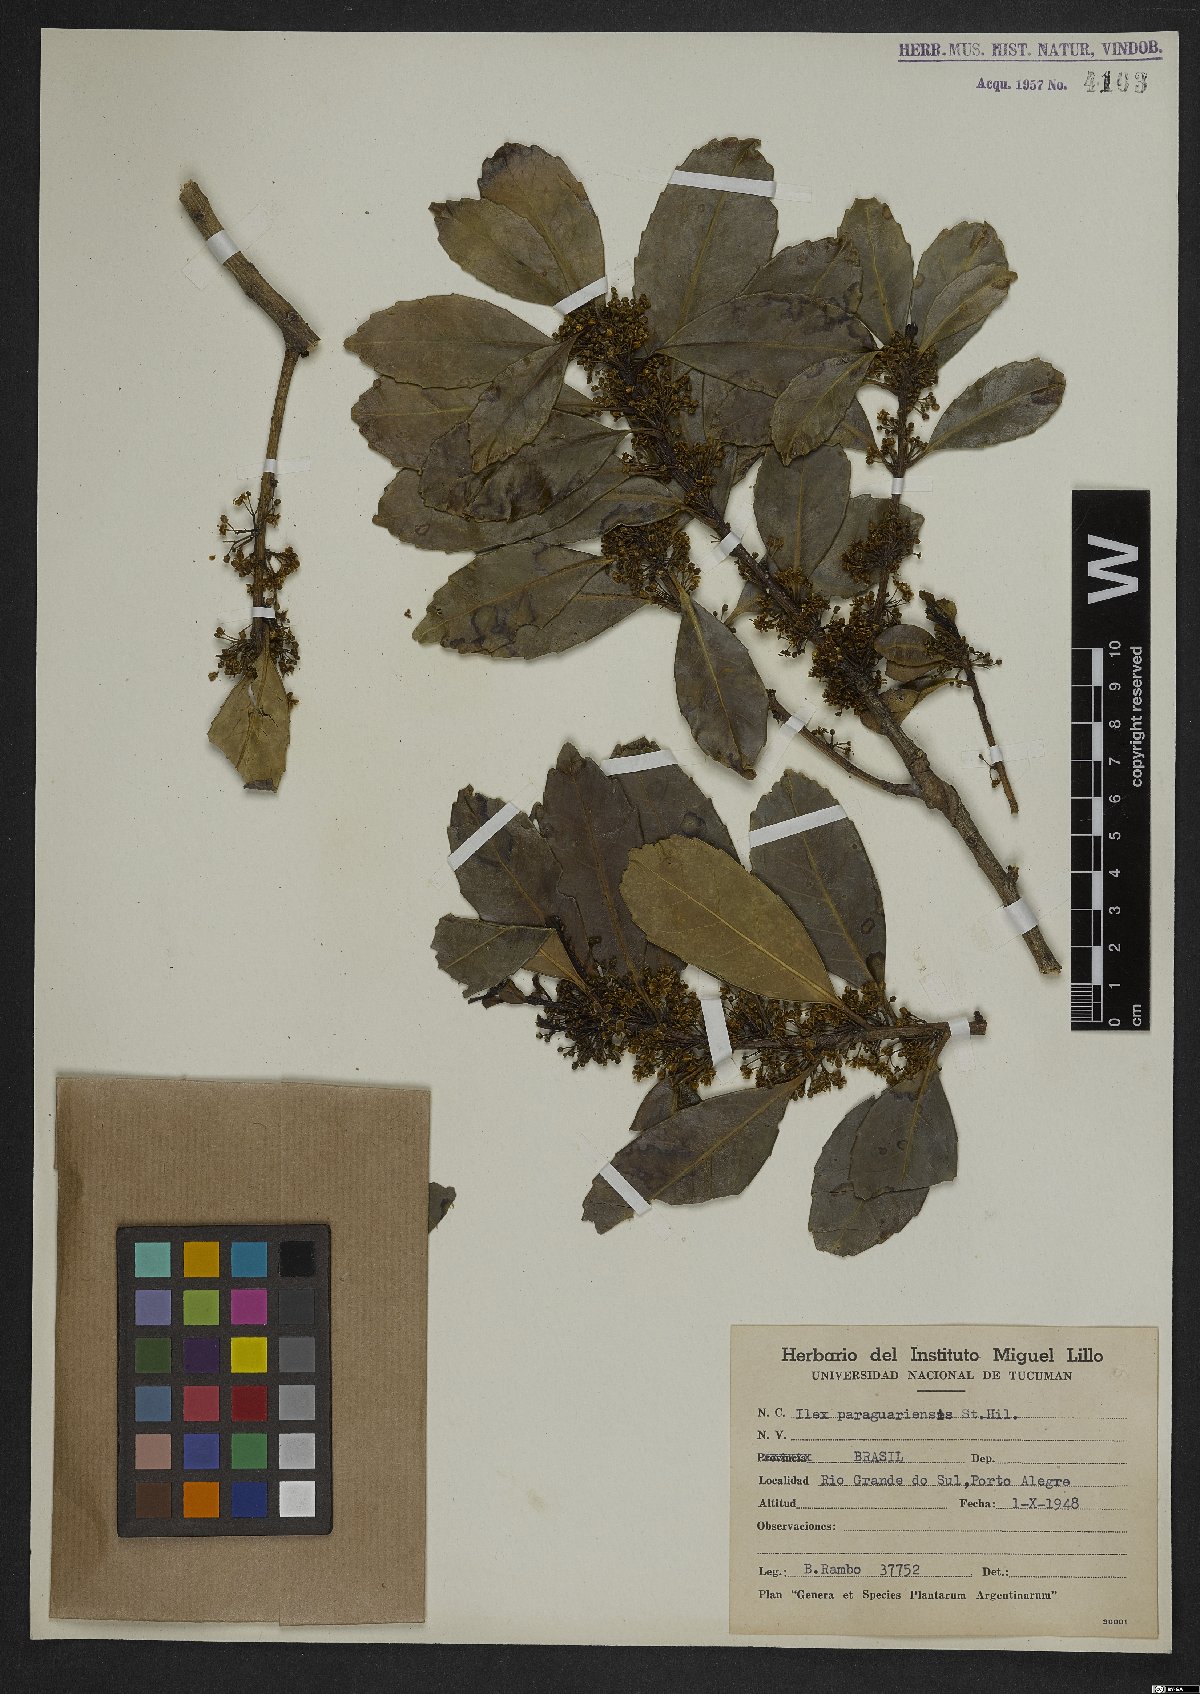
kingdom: Plantae
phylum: Tracheophyta
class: Magnoliopsida
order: Aquifoliales
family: Aquifoliaceae
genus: Ilex
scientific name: Ilex paraguariensis
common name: Paraguay tea
